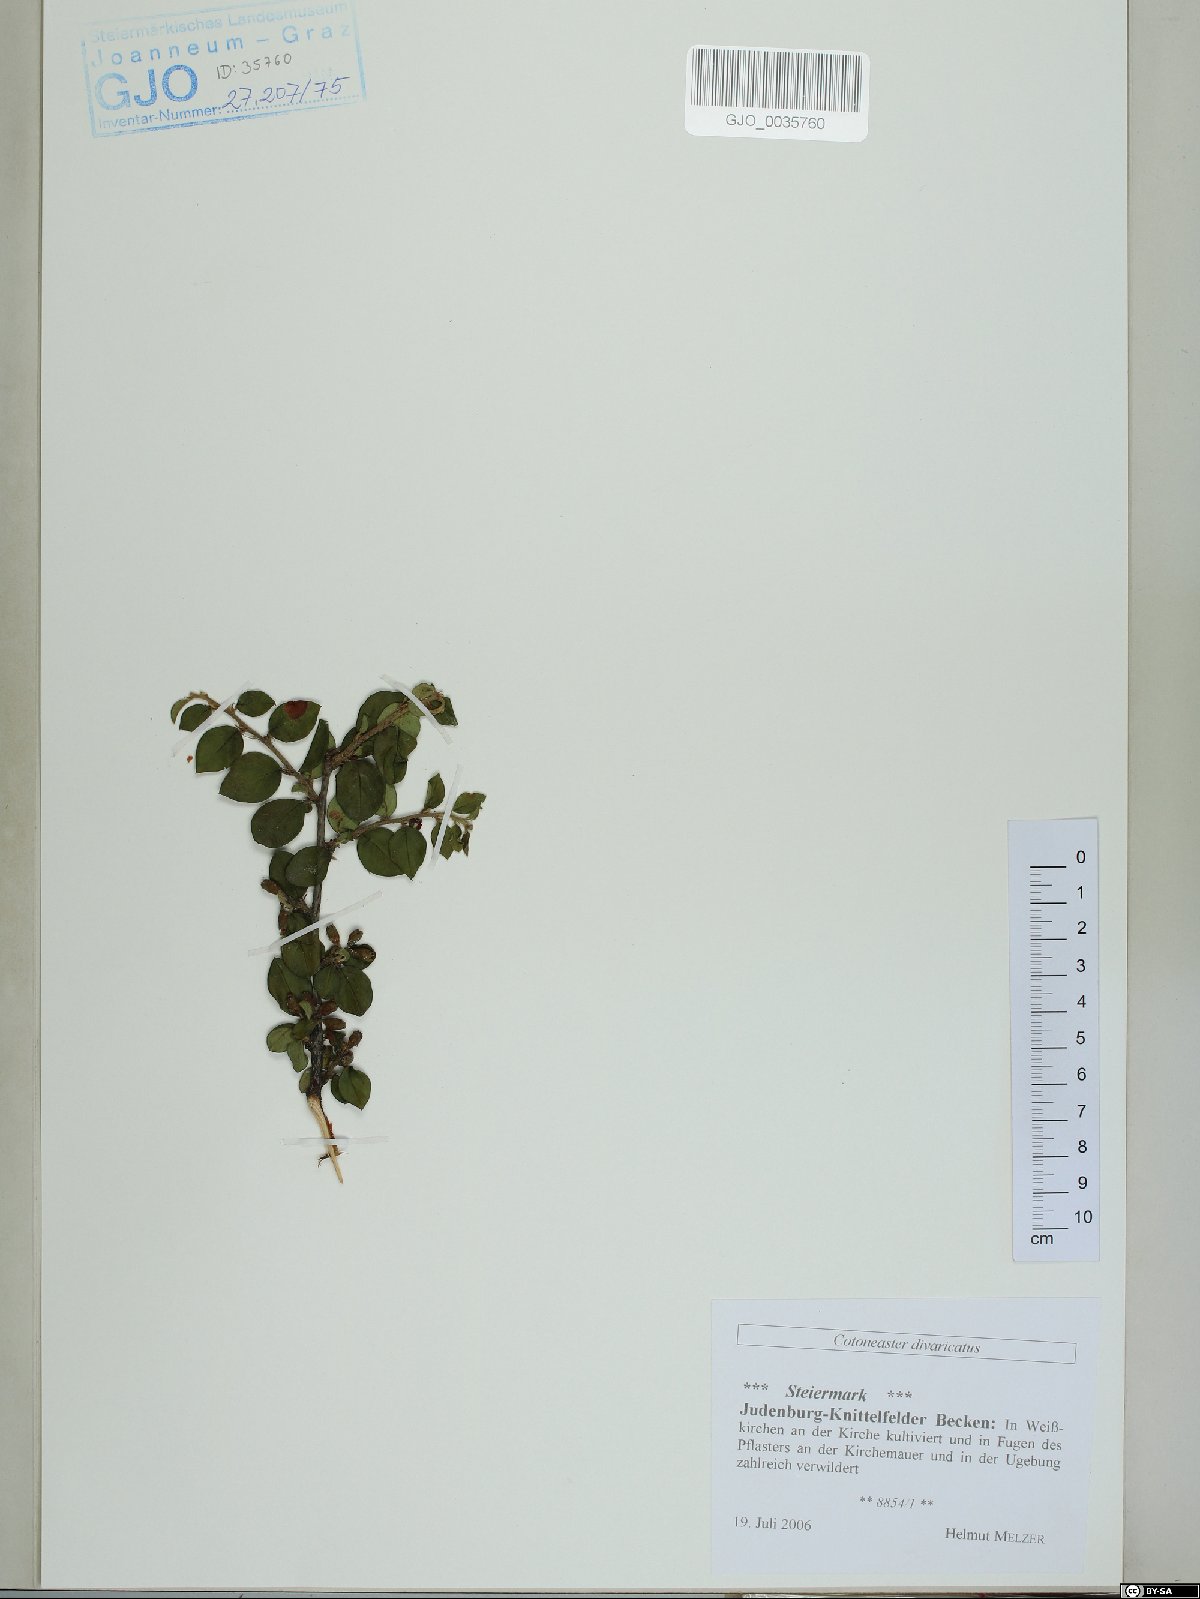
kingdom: Plantae
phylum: Tracheophyta
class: Magnoliopsida
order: Rosales
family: Rosaceae
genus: Cotoneaster
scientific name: Cotoneaster divaricatus
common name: Spreading cotoneaster
